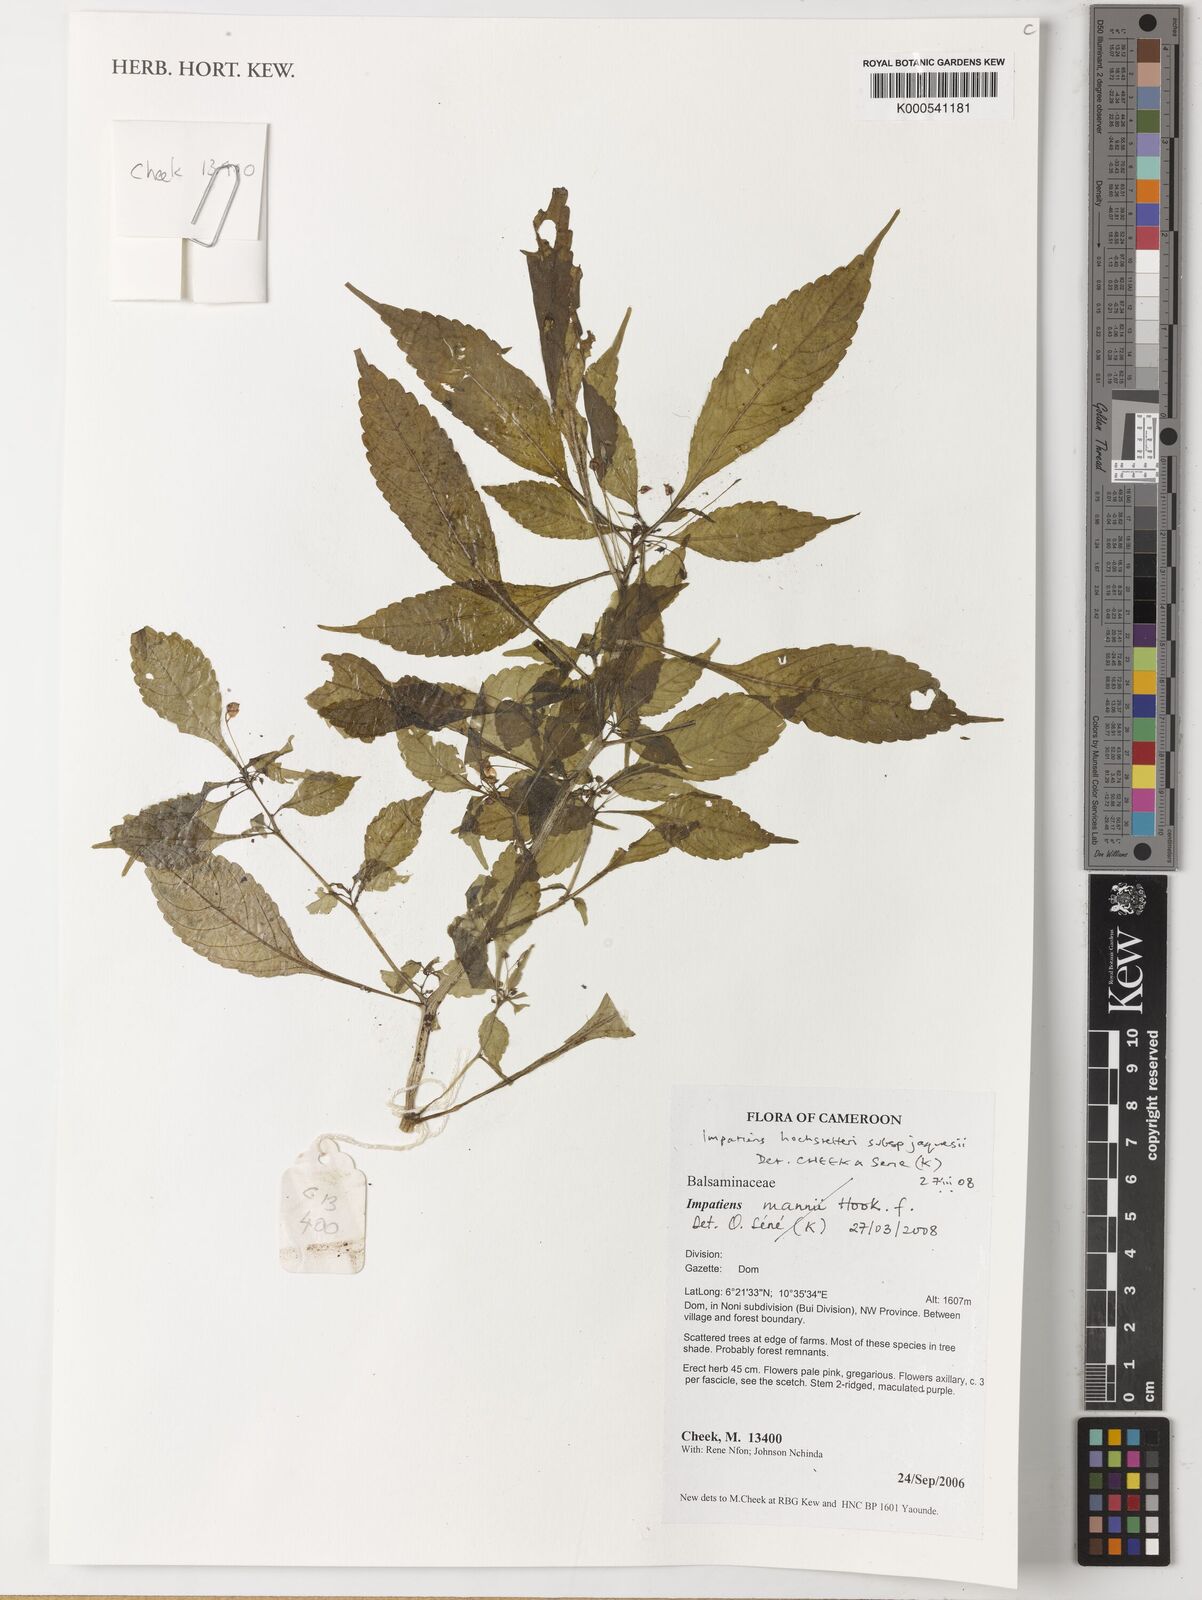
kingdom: Plantae
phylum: Tracheophyta
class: Magnoliopsida
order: Ericales
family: Balsaminaceae
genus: Impatiens
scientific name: Impatiens hochstetteri
